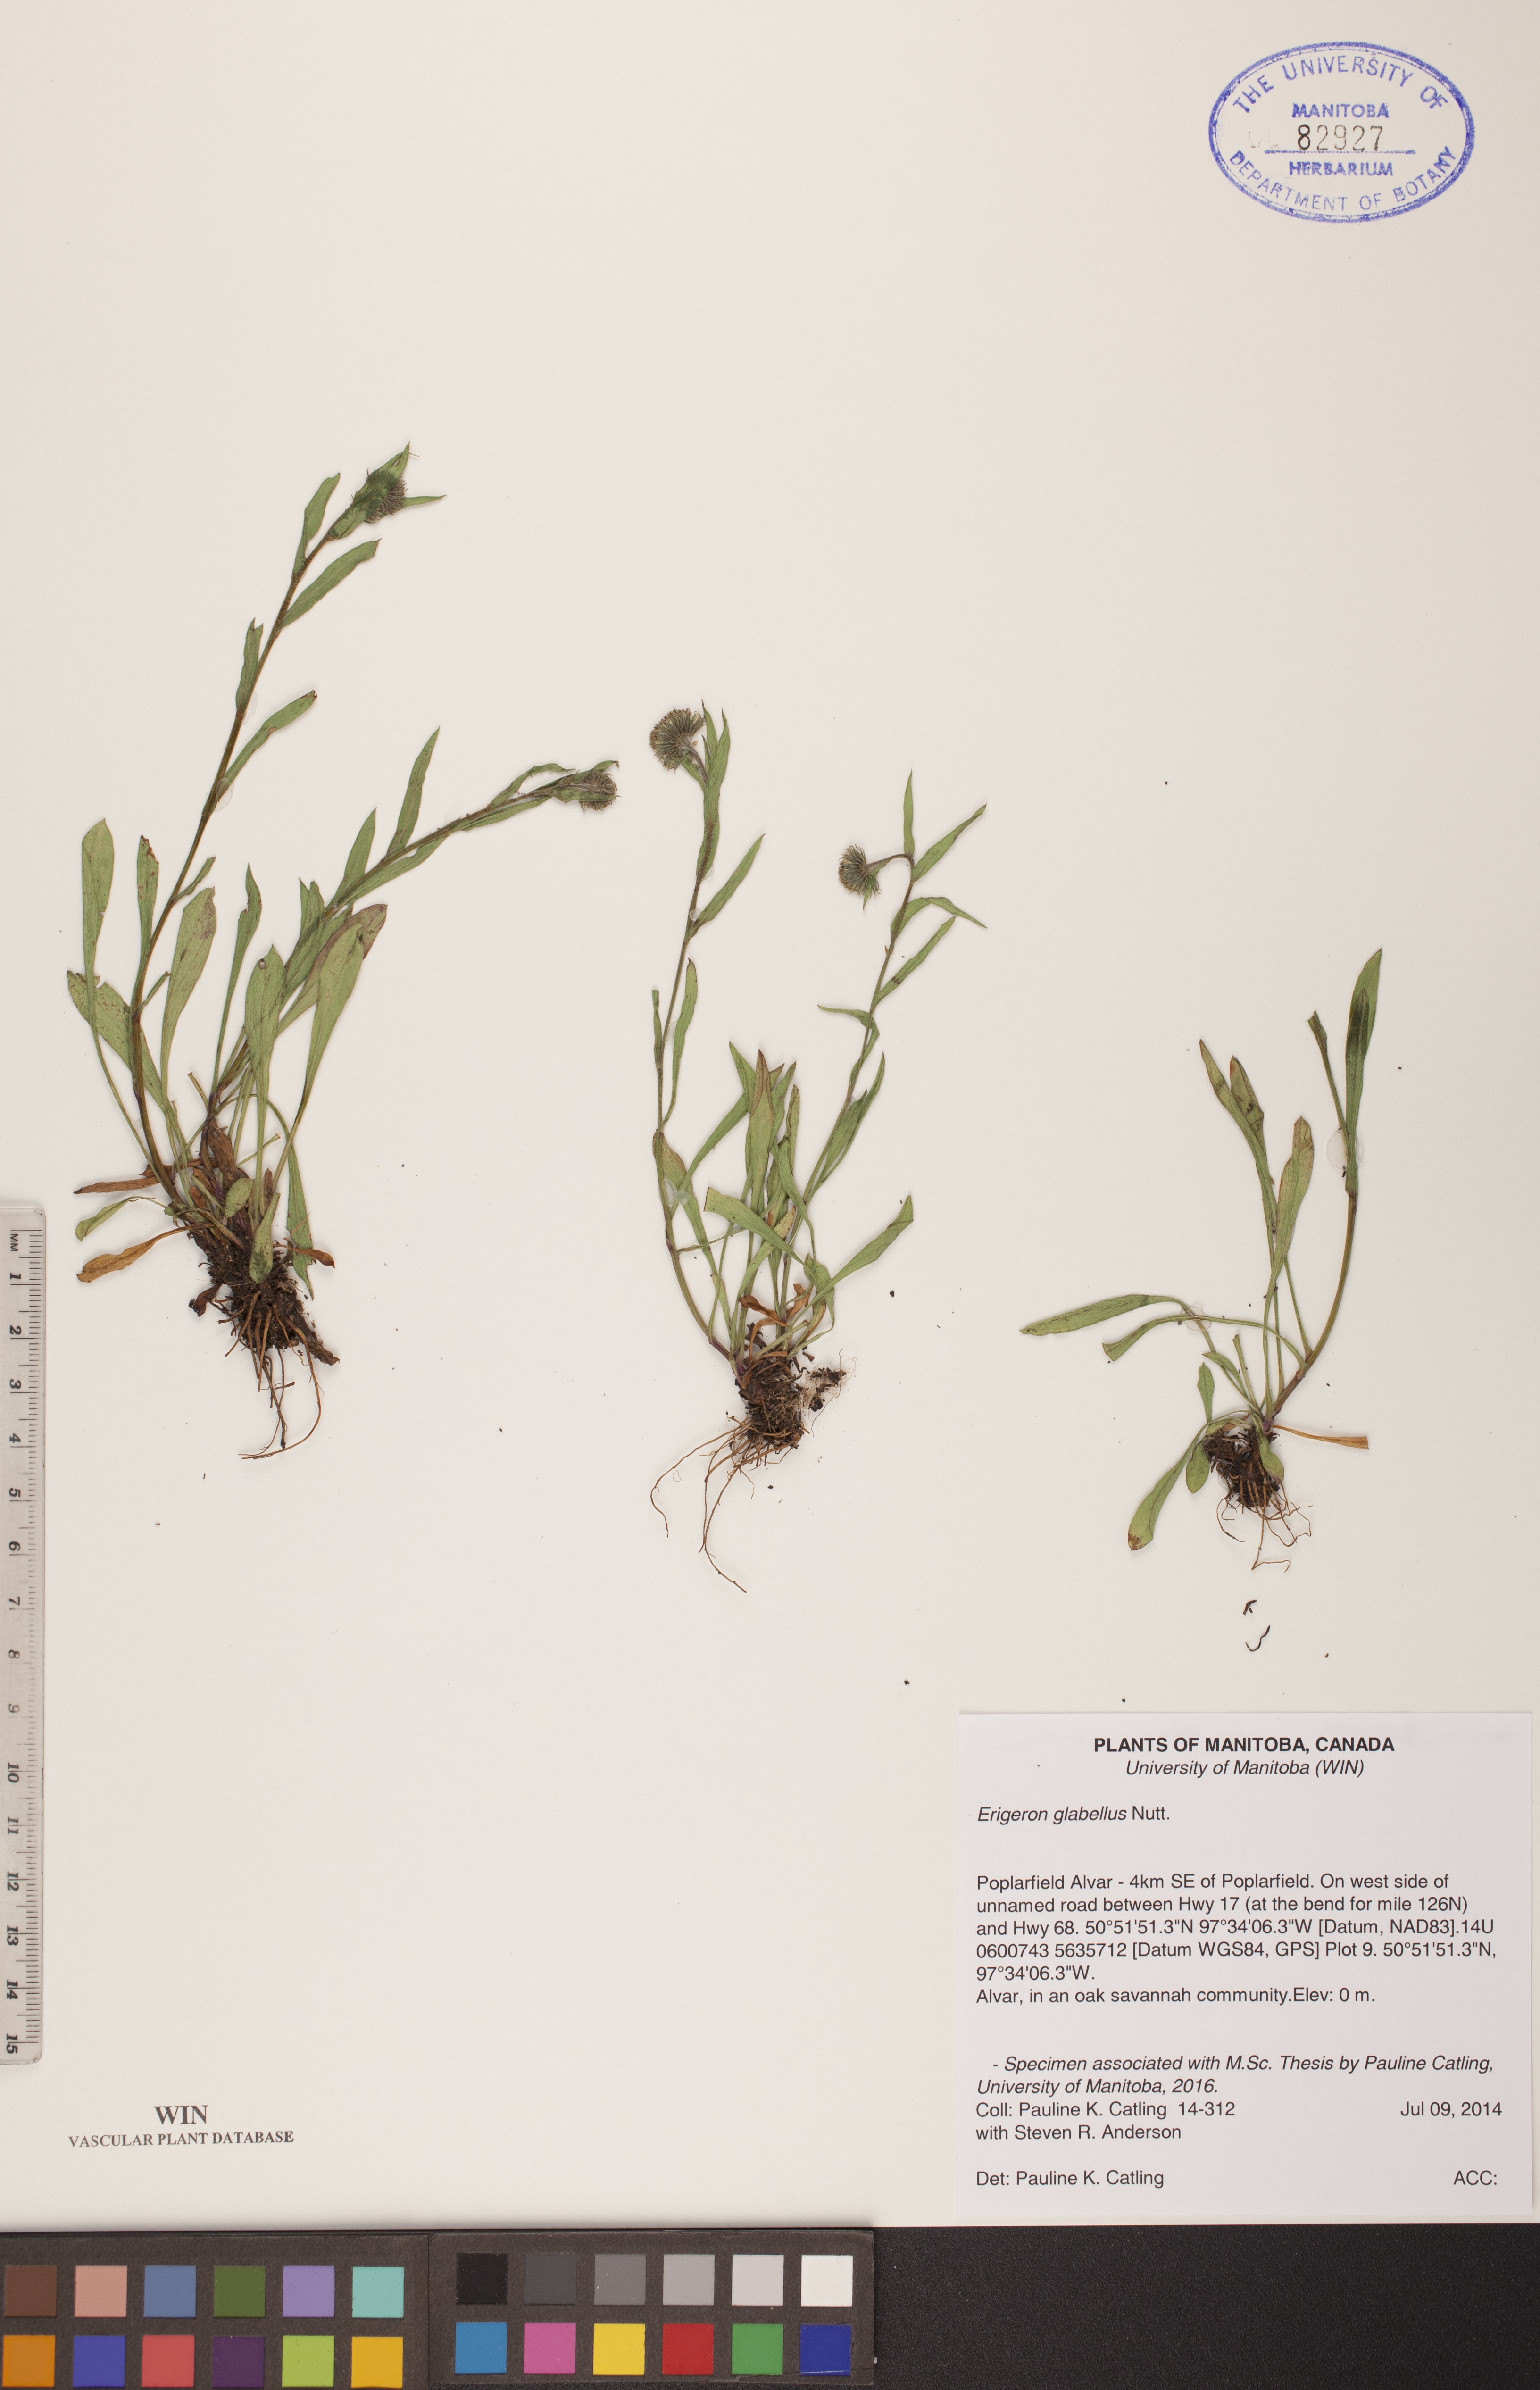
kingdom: Plantae
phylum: Tracheophyta
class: Magnoliopsida
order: Asterales
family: Asteraceae
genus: Erigeron
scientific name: Erigeron glabellus
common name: Smooth fleabane
